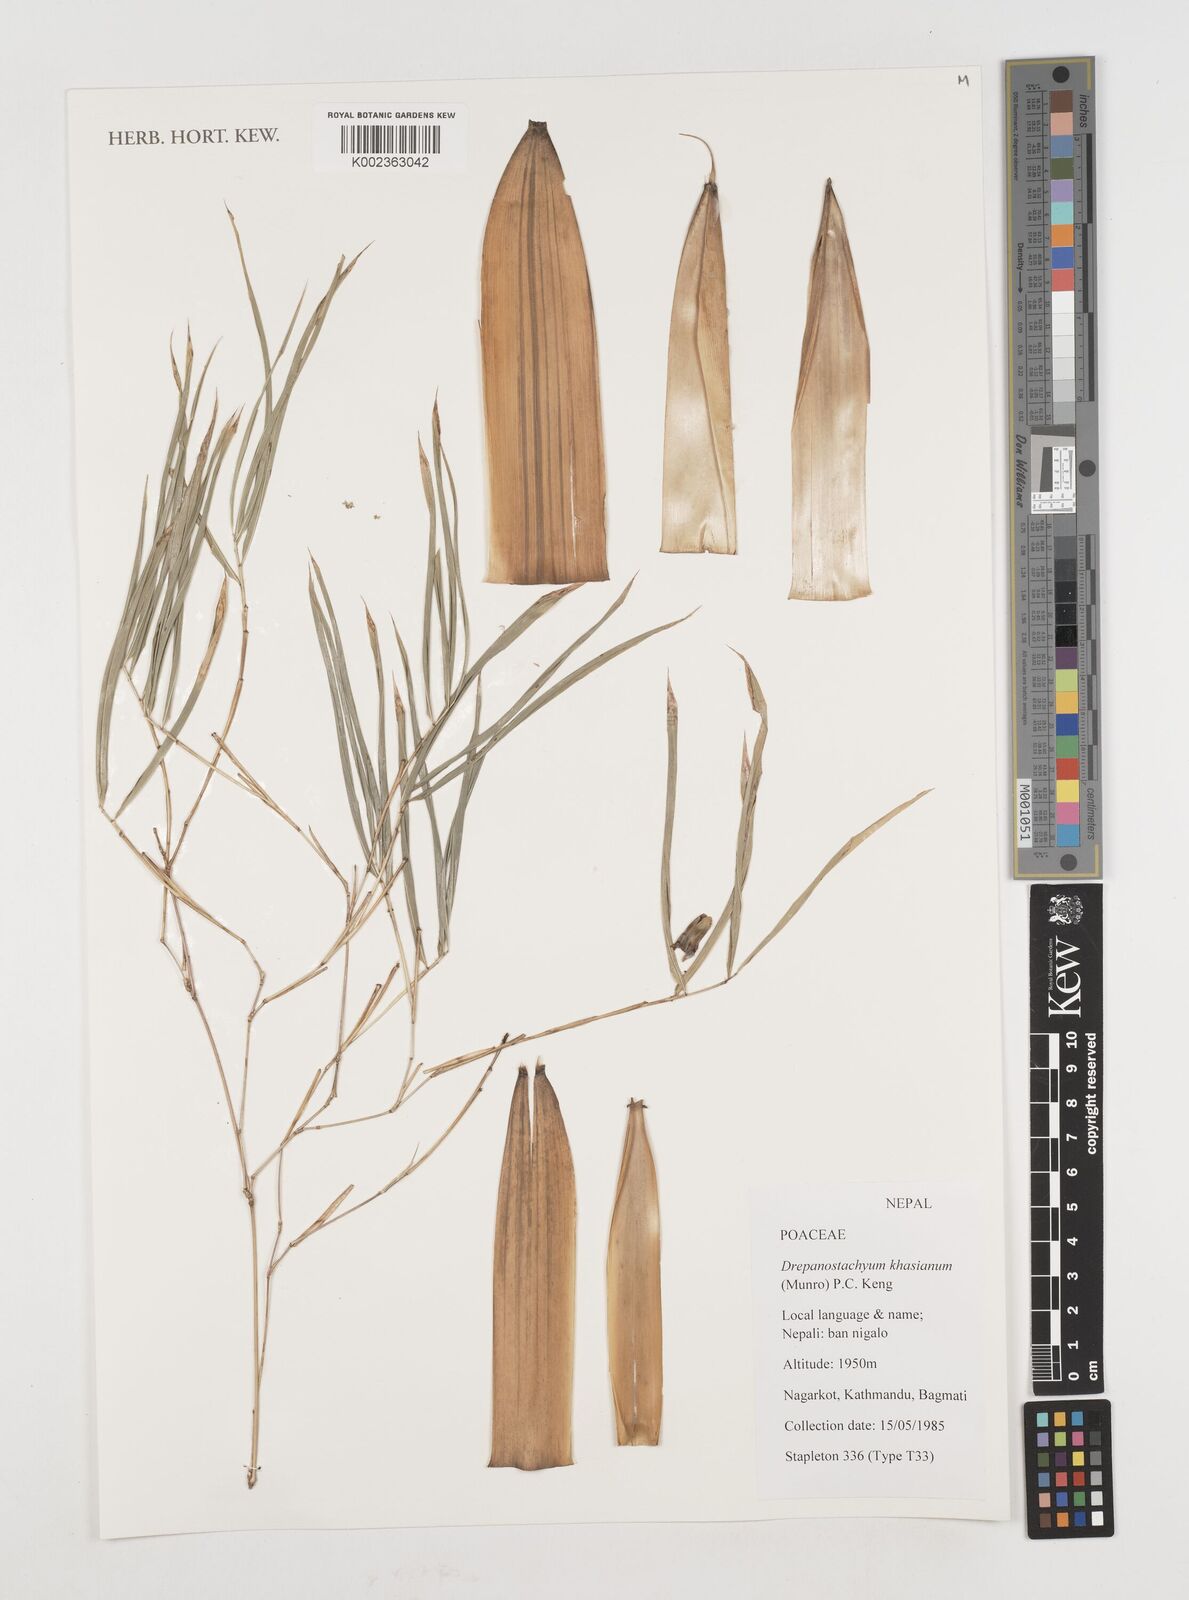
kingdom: Plantae
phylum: Tracheophyta
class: Liliopsida
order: Poales
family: Poaceae
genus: Drepanostachyum
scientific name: Drepanostachyum khasianum
